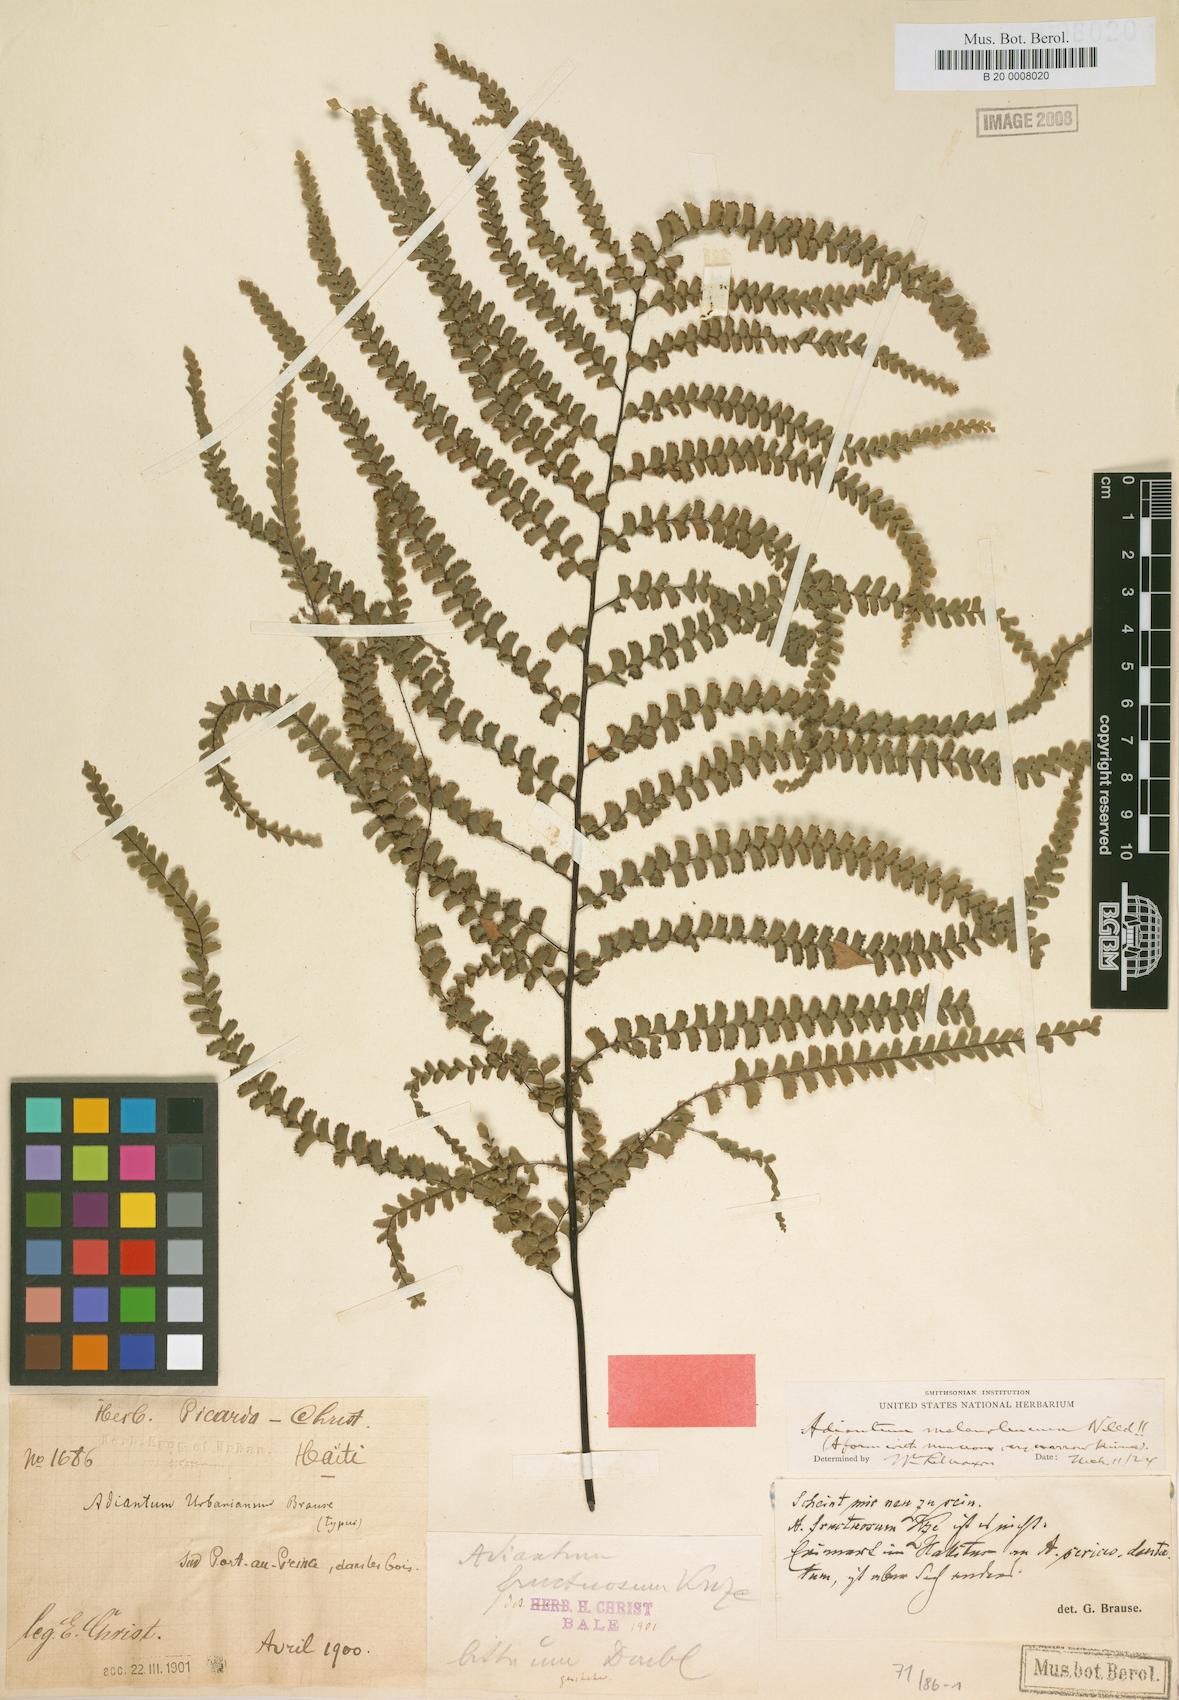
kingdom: Plantae
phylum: Tracheophyta
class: Polypodiopsida
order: Polypodiales
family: Pteridaceae
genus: Adiantum
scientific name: Adiantum melanoleucum
